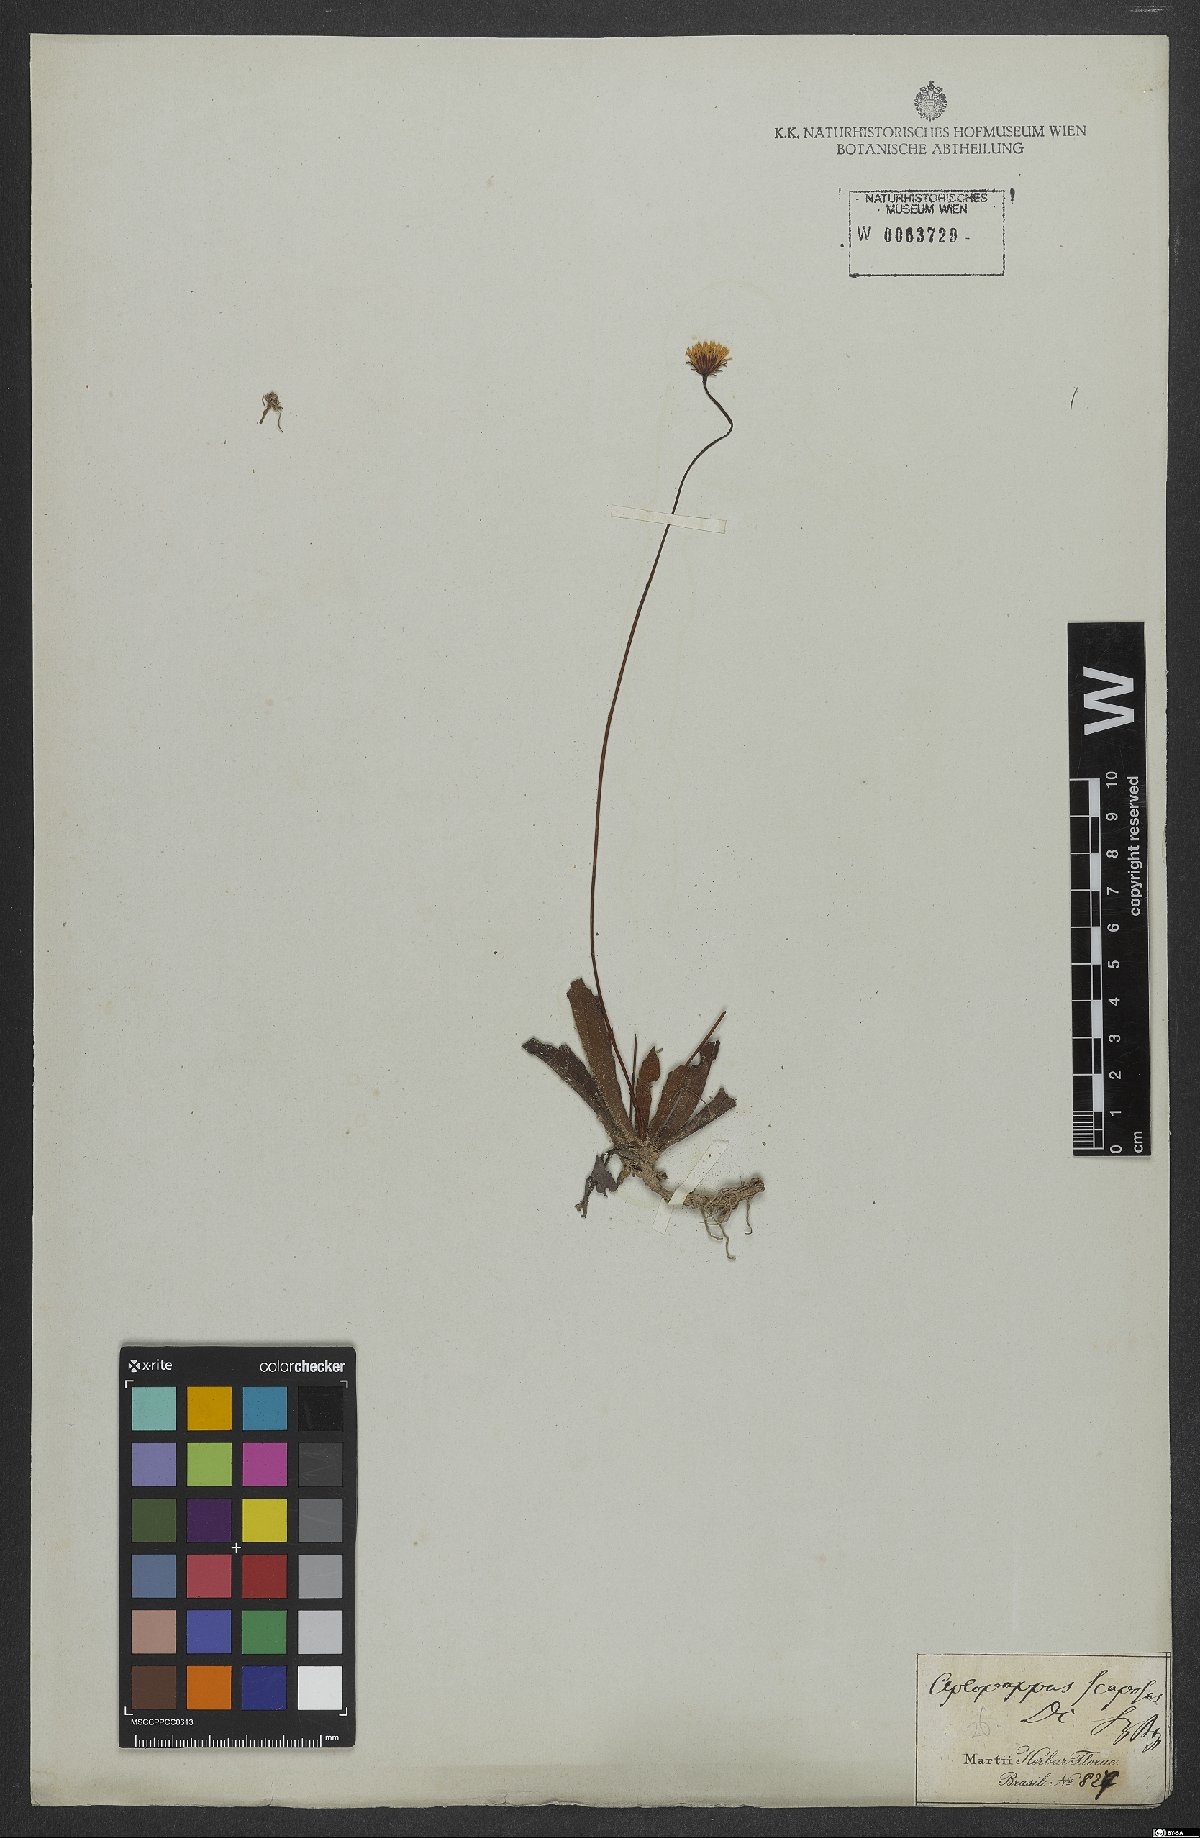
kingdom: Plantae
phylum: Tracheophyta
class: Magnoliopsida
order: Asterales
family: Asteraceae
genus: Inulopsis
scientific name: Inulopsis scaposa
